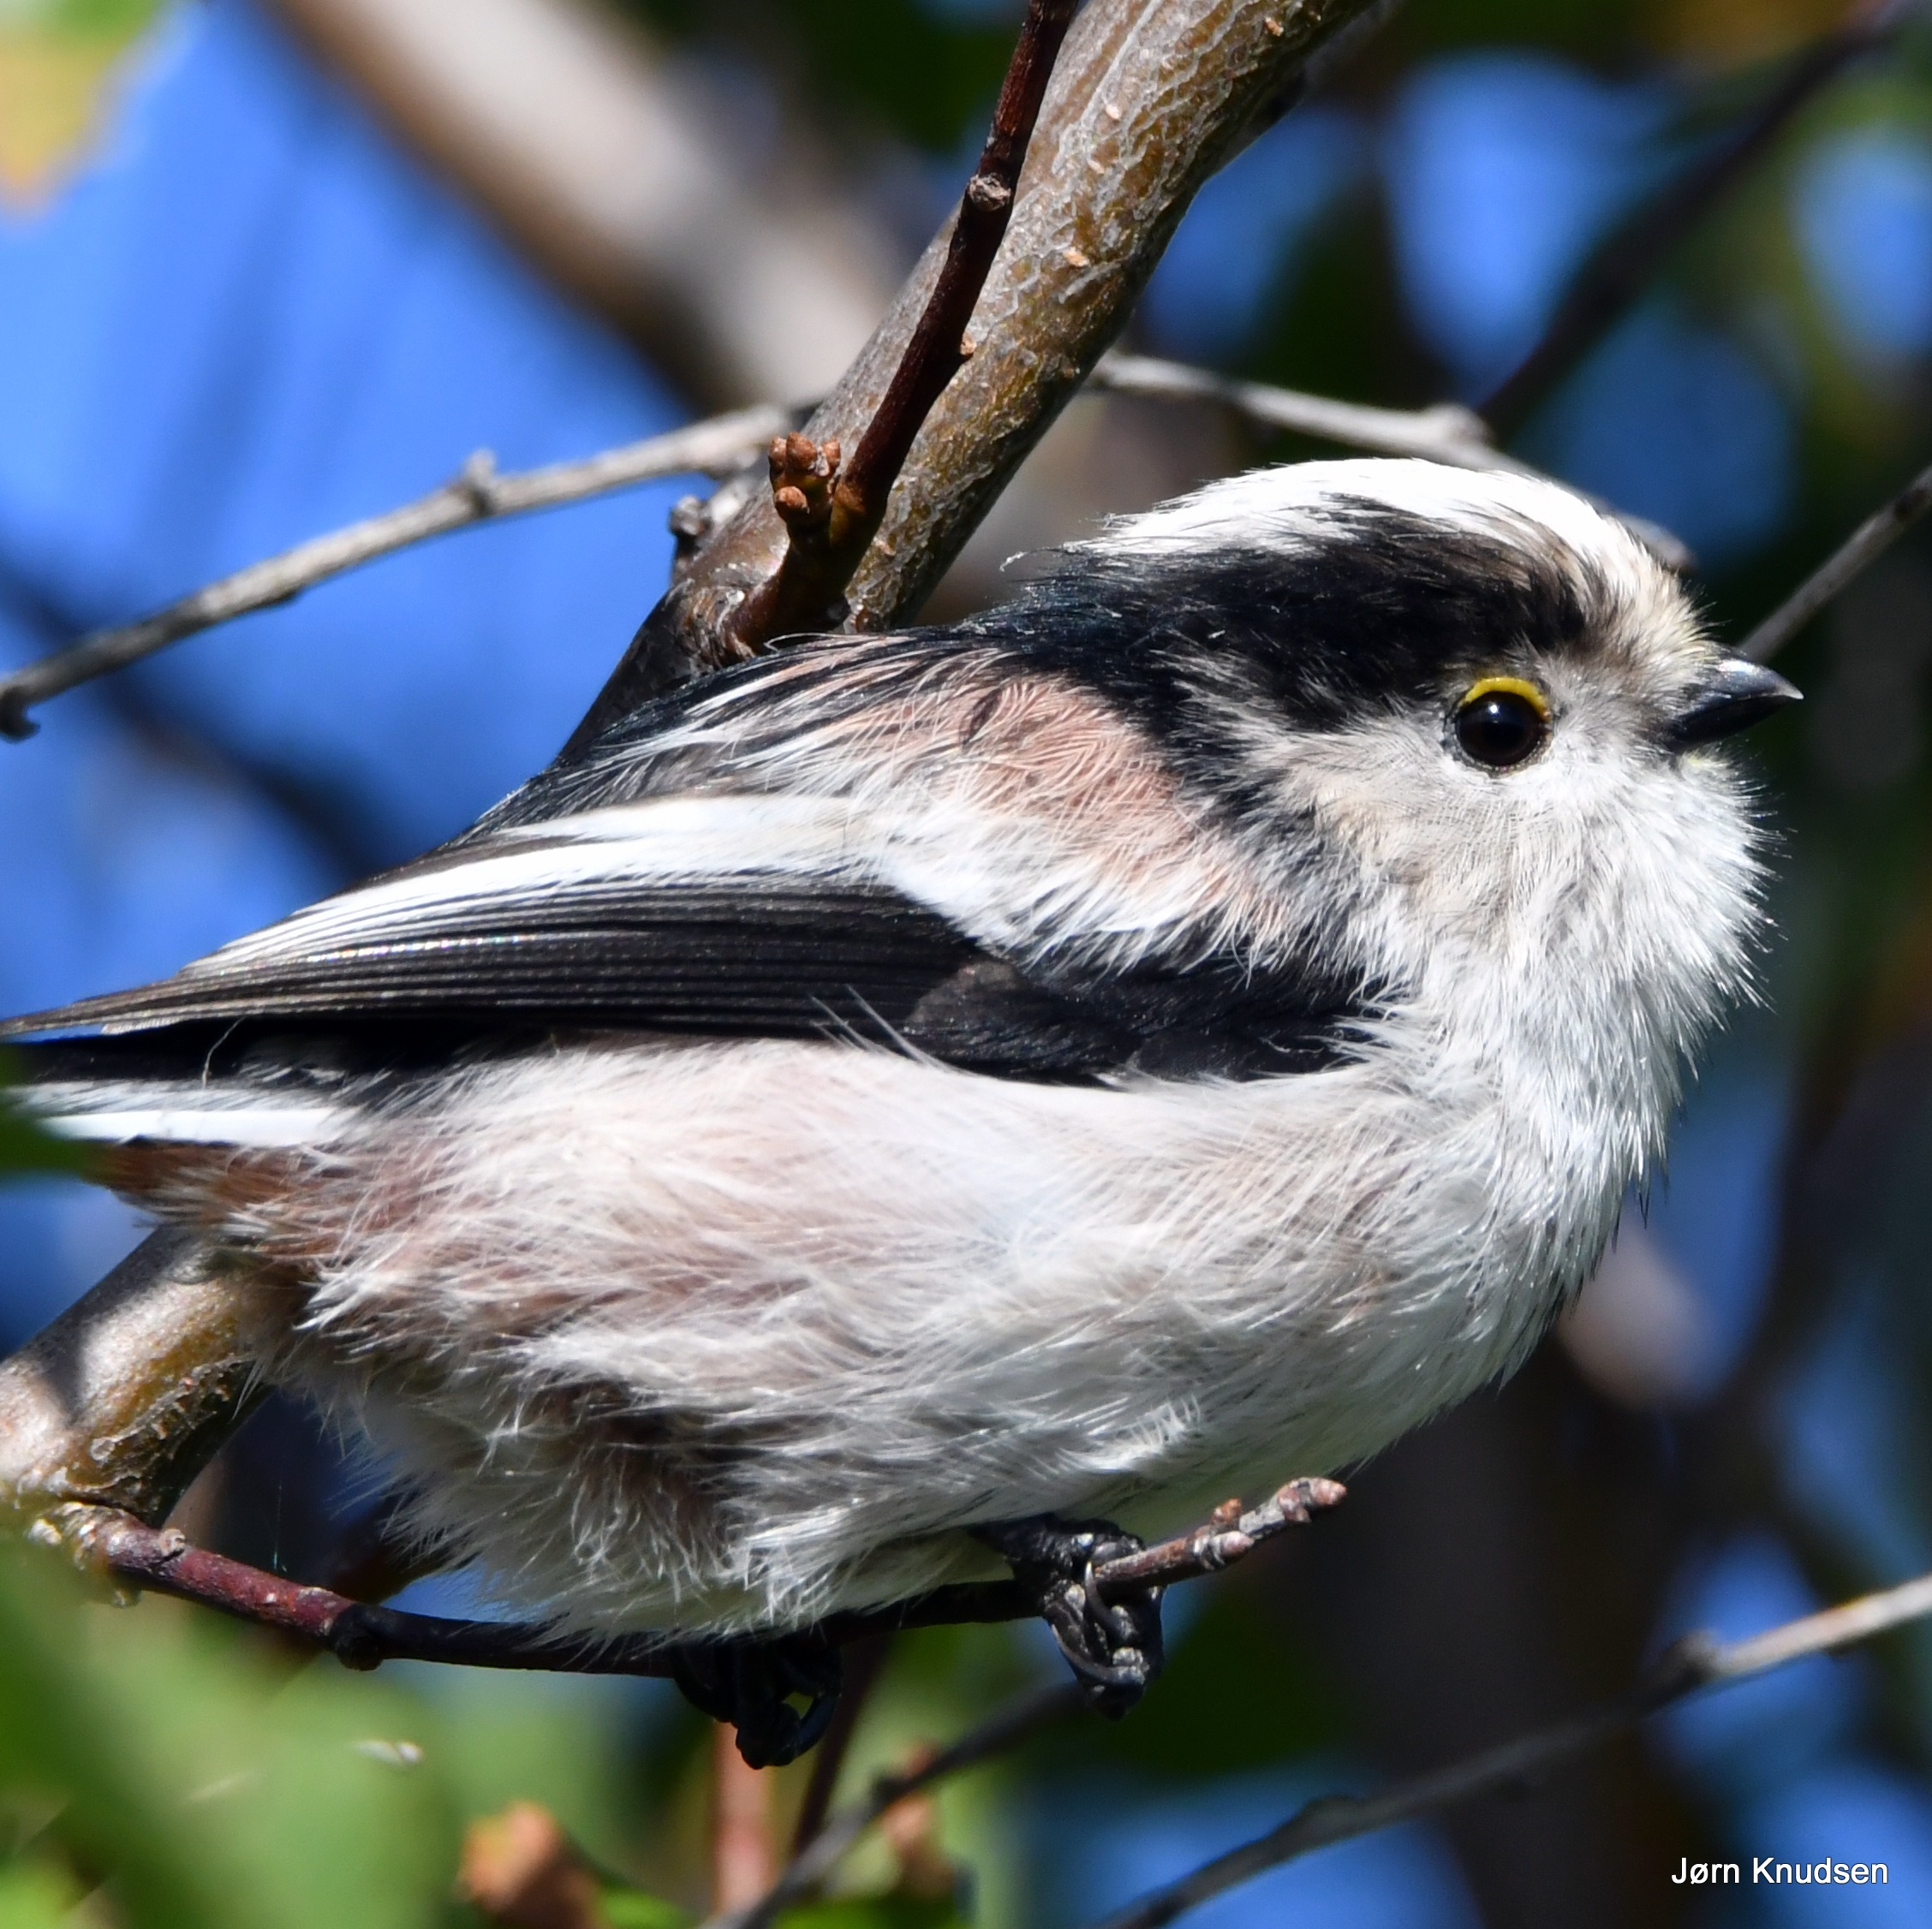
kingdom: Animalia
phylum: Chordata
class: Aves
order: Passeriformes
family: Aegithalidae
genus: Aegithalos
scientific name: Aegithalos caudatus
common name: Halemejse
